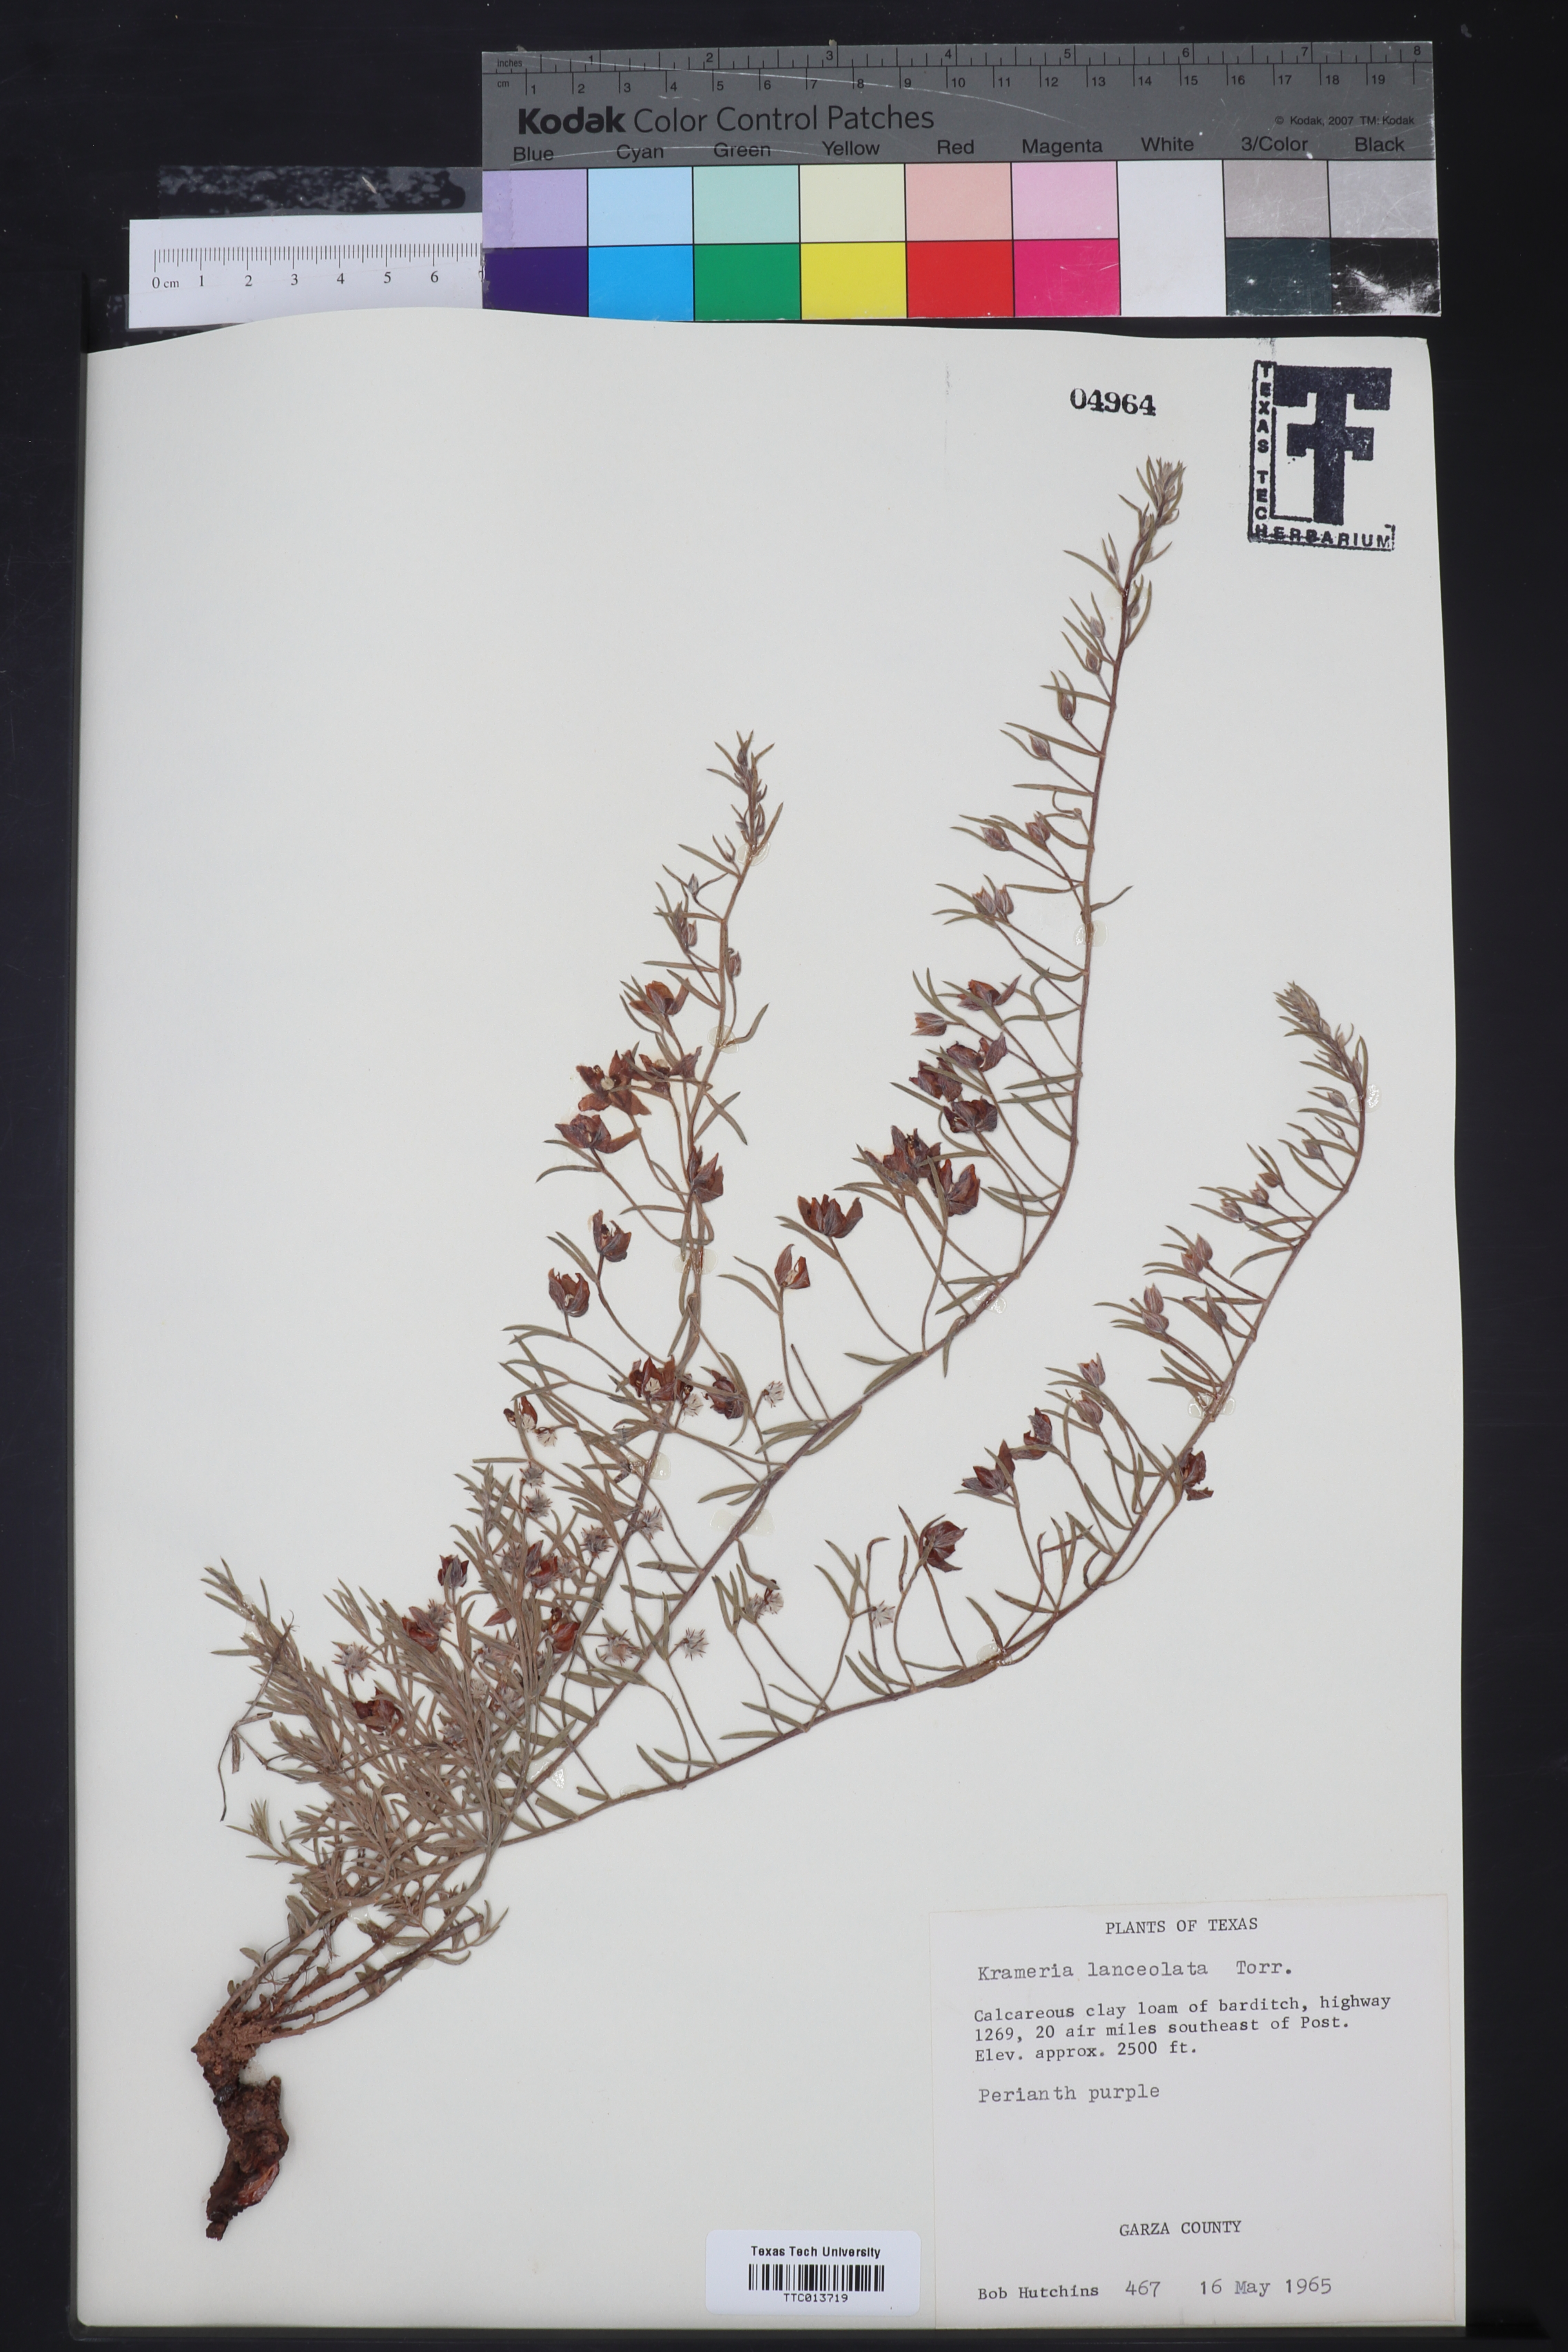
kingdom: Plantae
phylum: Tracheophyta
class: Magnoliopsida
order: Zygophyllales
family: Krameriaceae
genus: Krameria
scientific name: Krameria lanceolata
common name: Ratany
